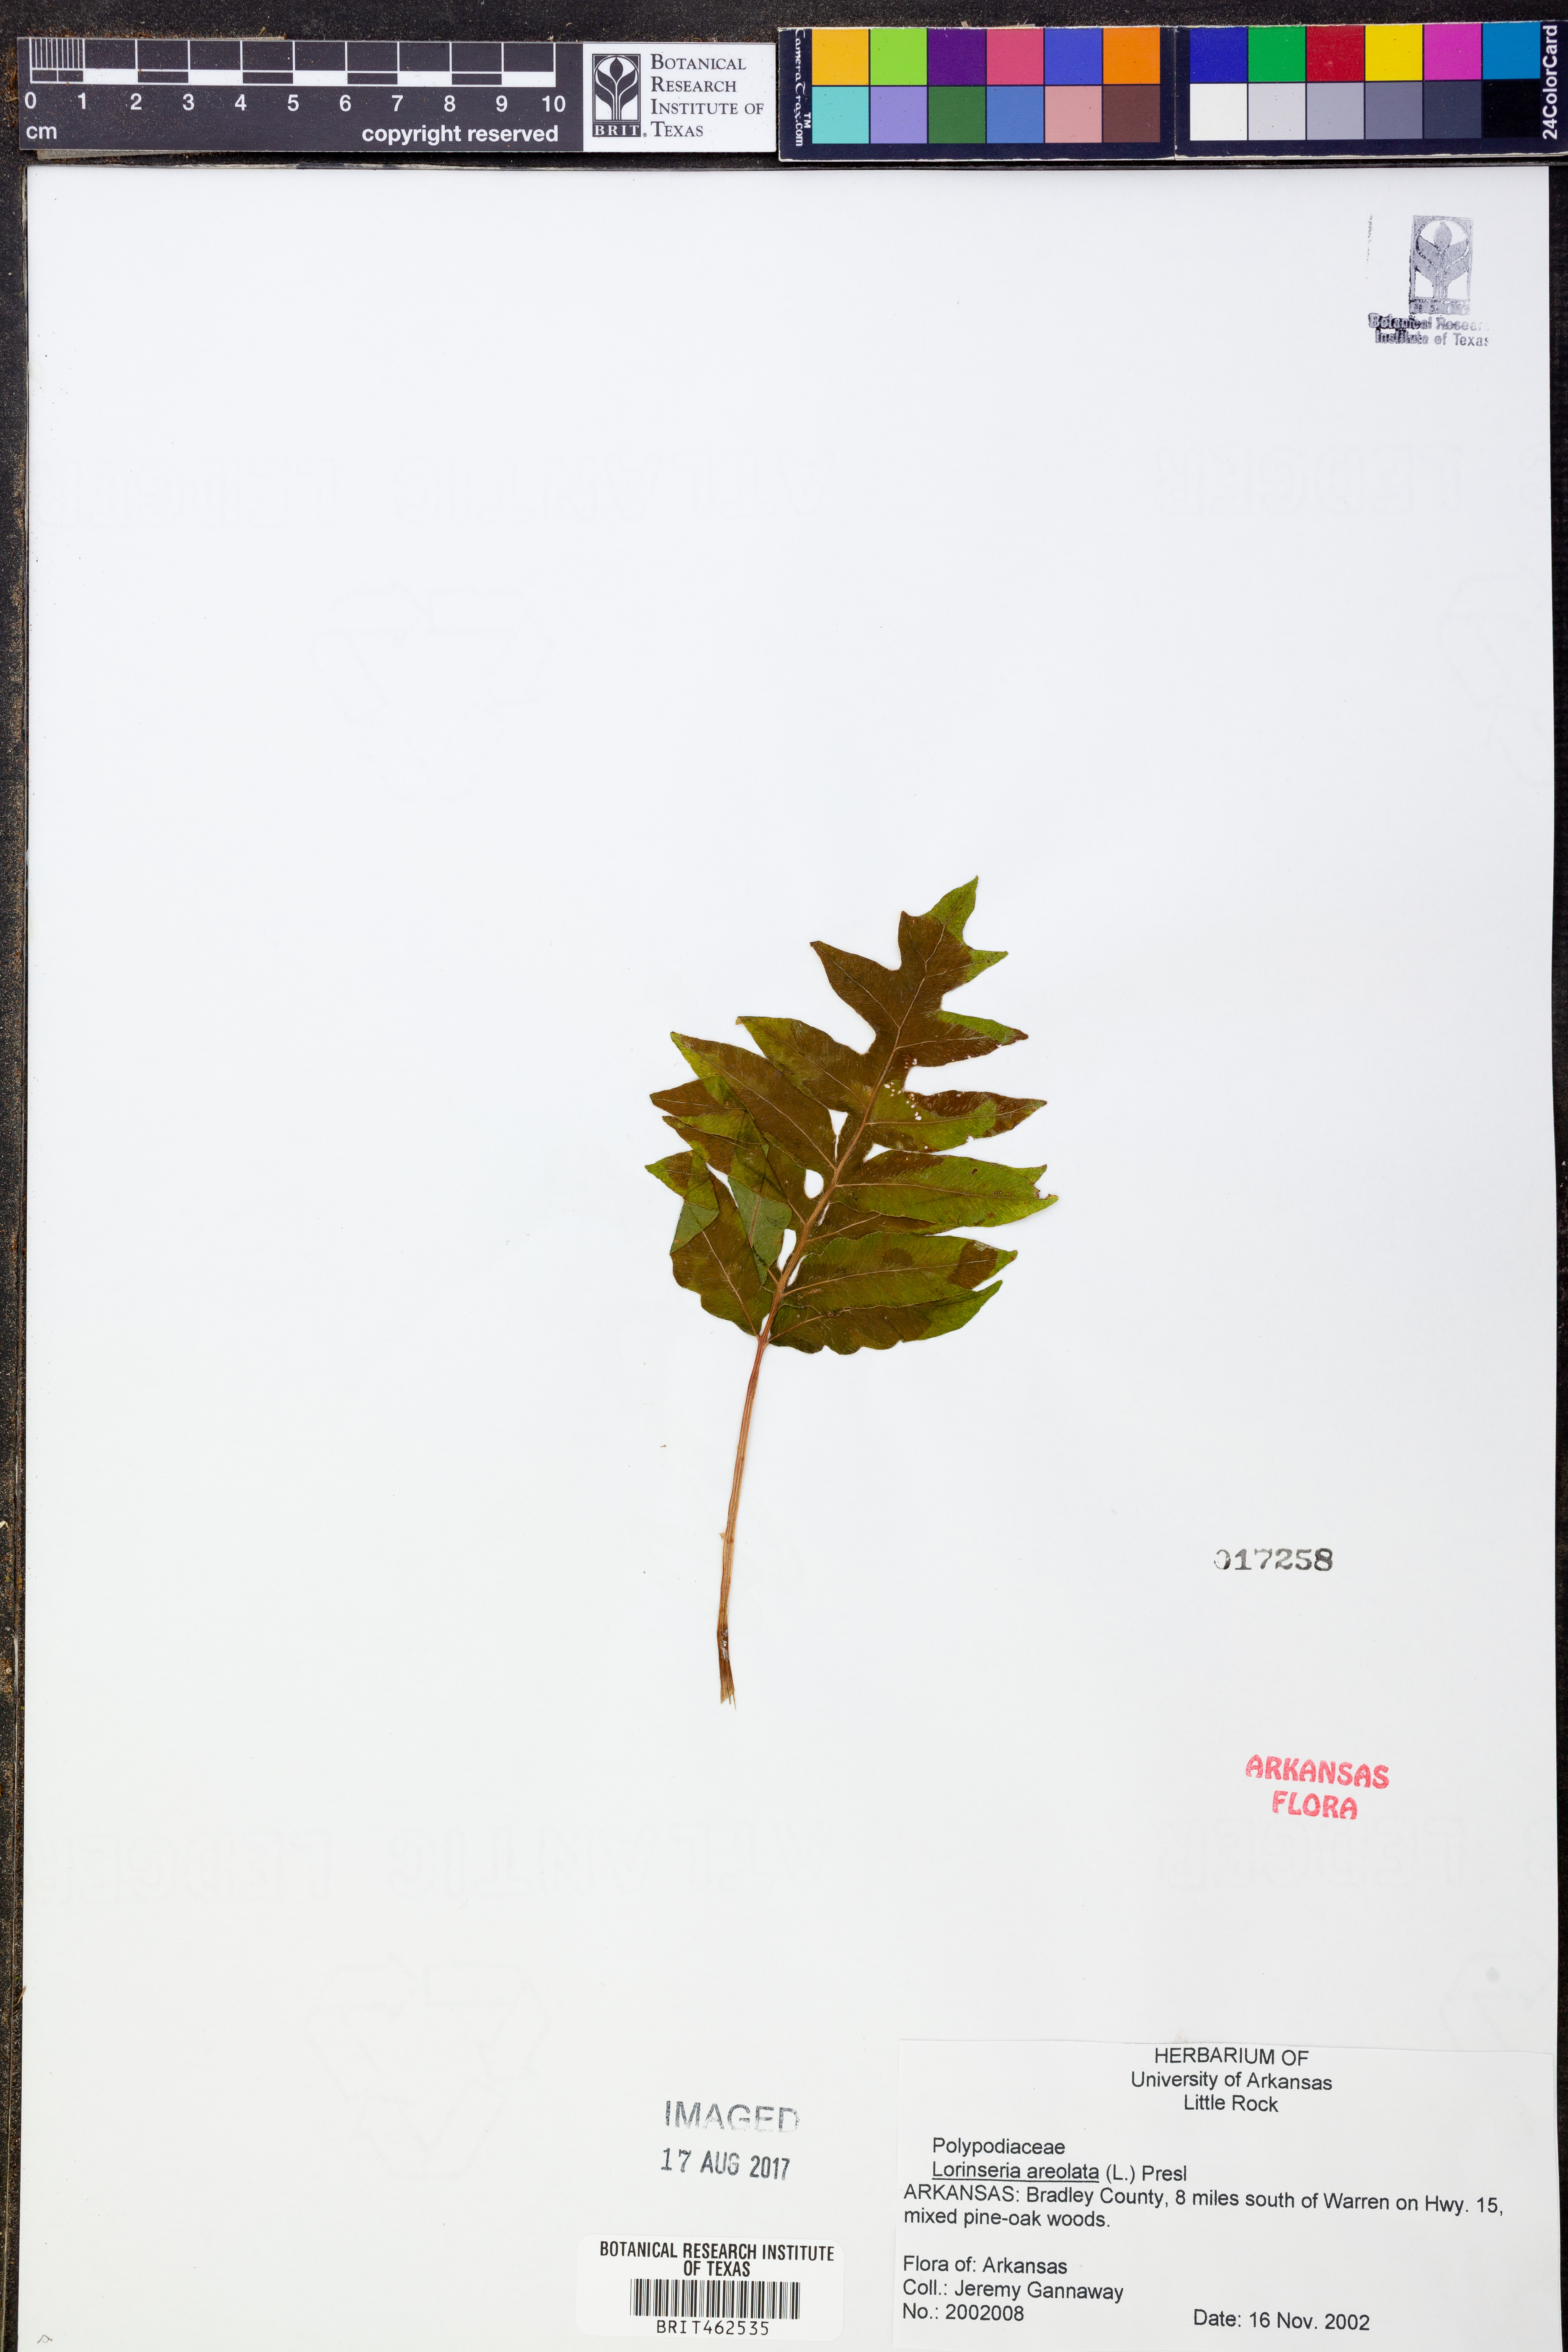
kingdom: Plantae
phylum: Tracheophyta
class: Polypodiopsida
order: Polypodiales
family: Blechnaceae
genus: Lorinseria
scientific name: Lorinseria areolata
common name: Dwarf chain fern
